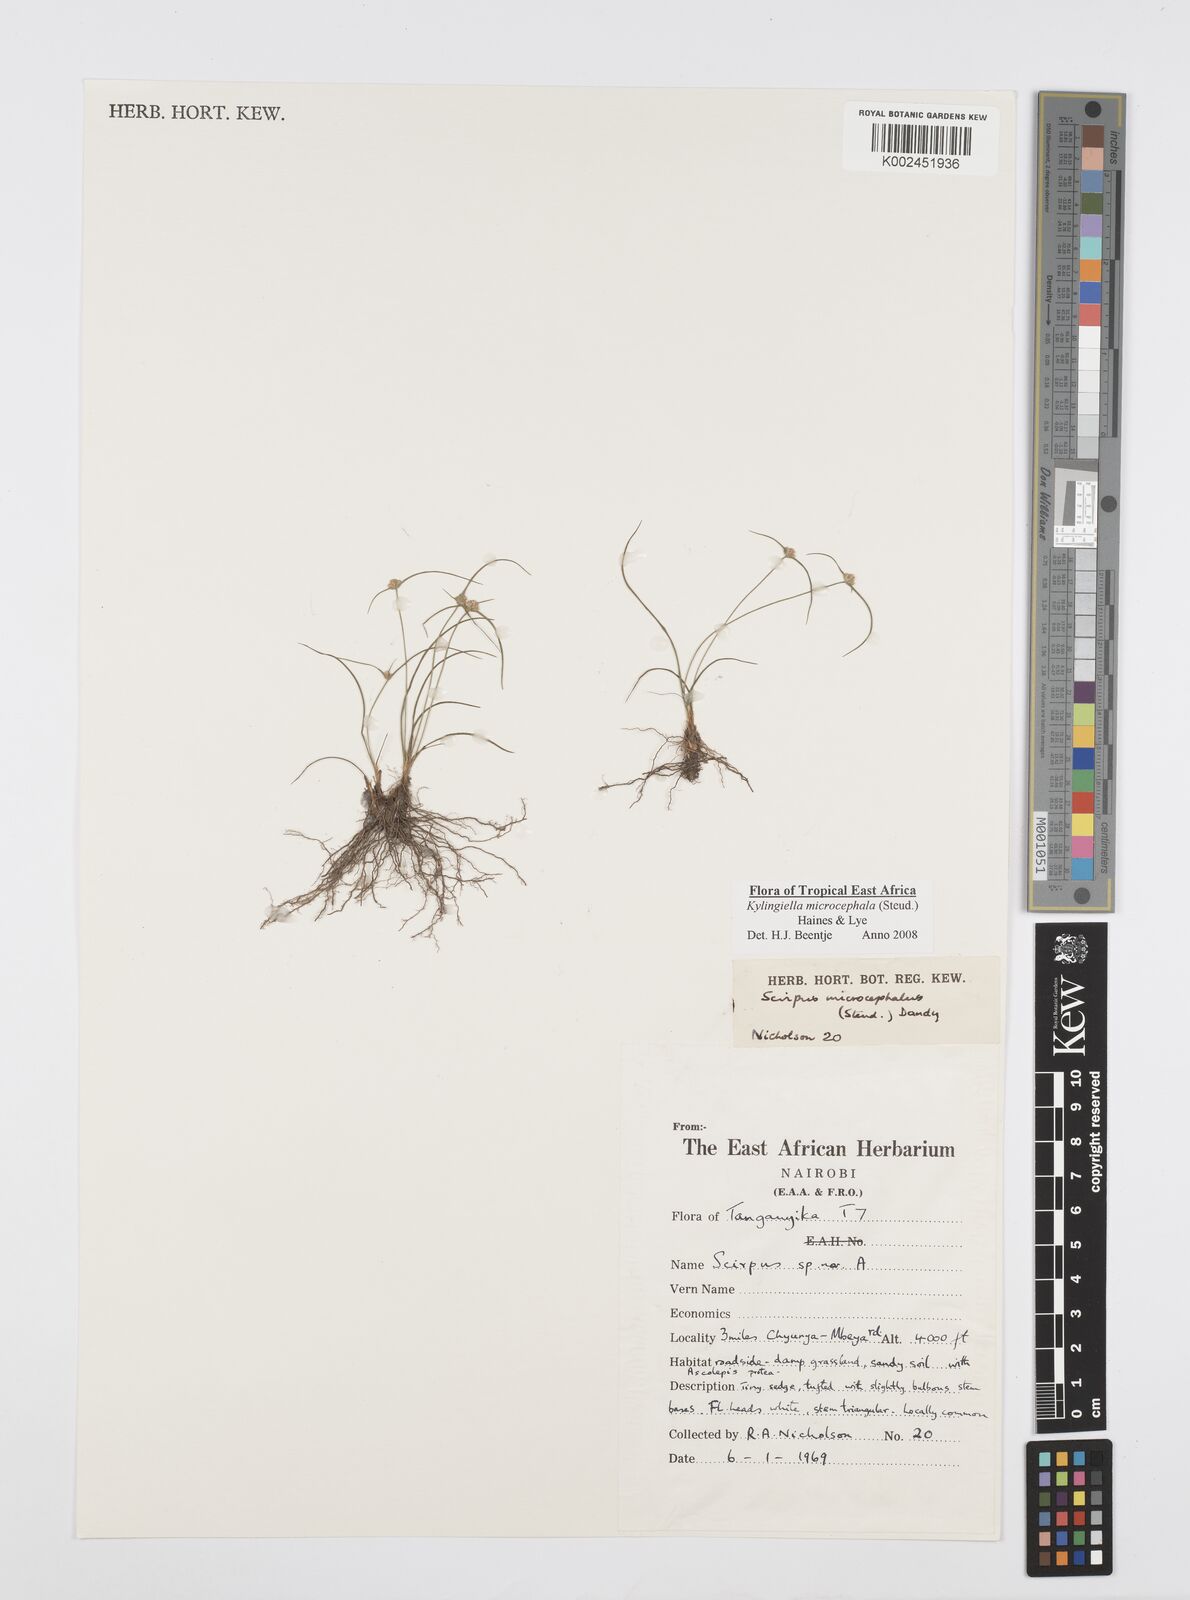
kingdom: Plantae
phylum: Tracheophyta
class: Liliopsida
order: Poales
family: Cyperaceae
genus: Cyperus
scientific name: Cyperus microcephalus
